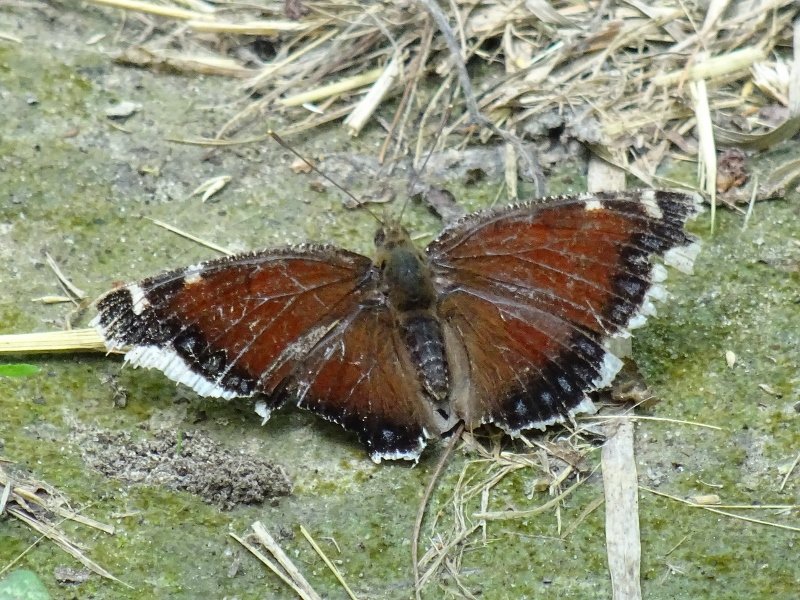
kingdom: Animalia
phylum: Arthropoda
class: Insecta
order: Lepidoptera
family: Nymphalidae
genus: Nymphalis
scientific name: Nymphalis antiopa
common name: Mourning Cloak
